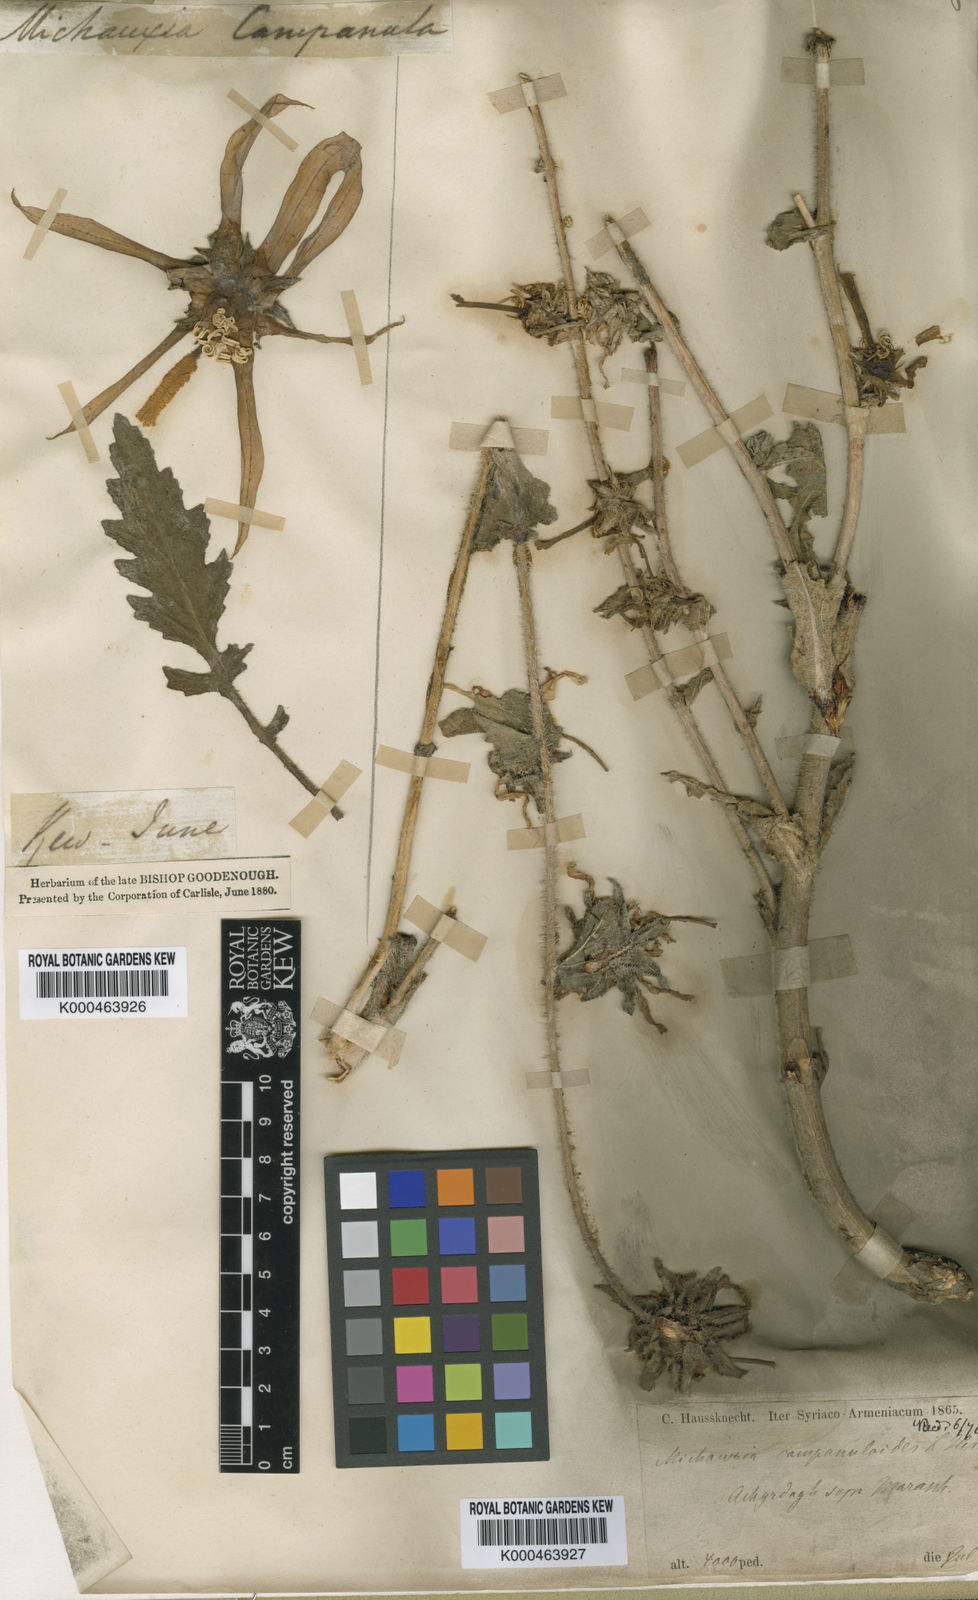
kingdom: Plantae
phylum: Tracheophyta
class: Magnoliopsida
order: Asterales
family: Campanulaceae
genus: Michauxia
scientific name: Michauxia
